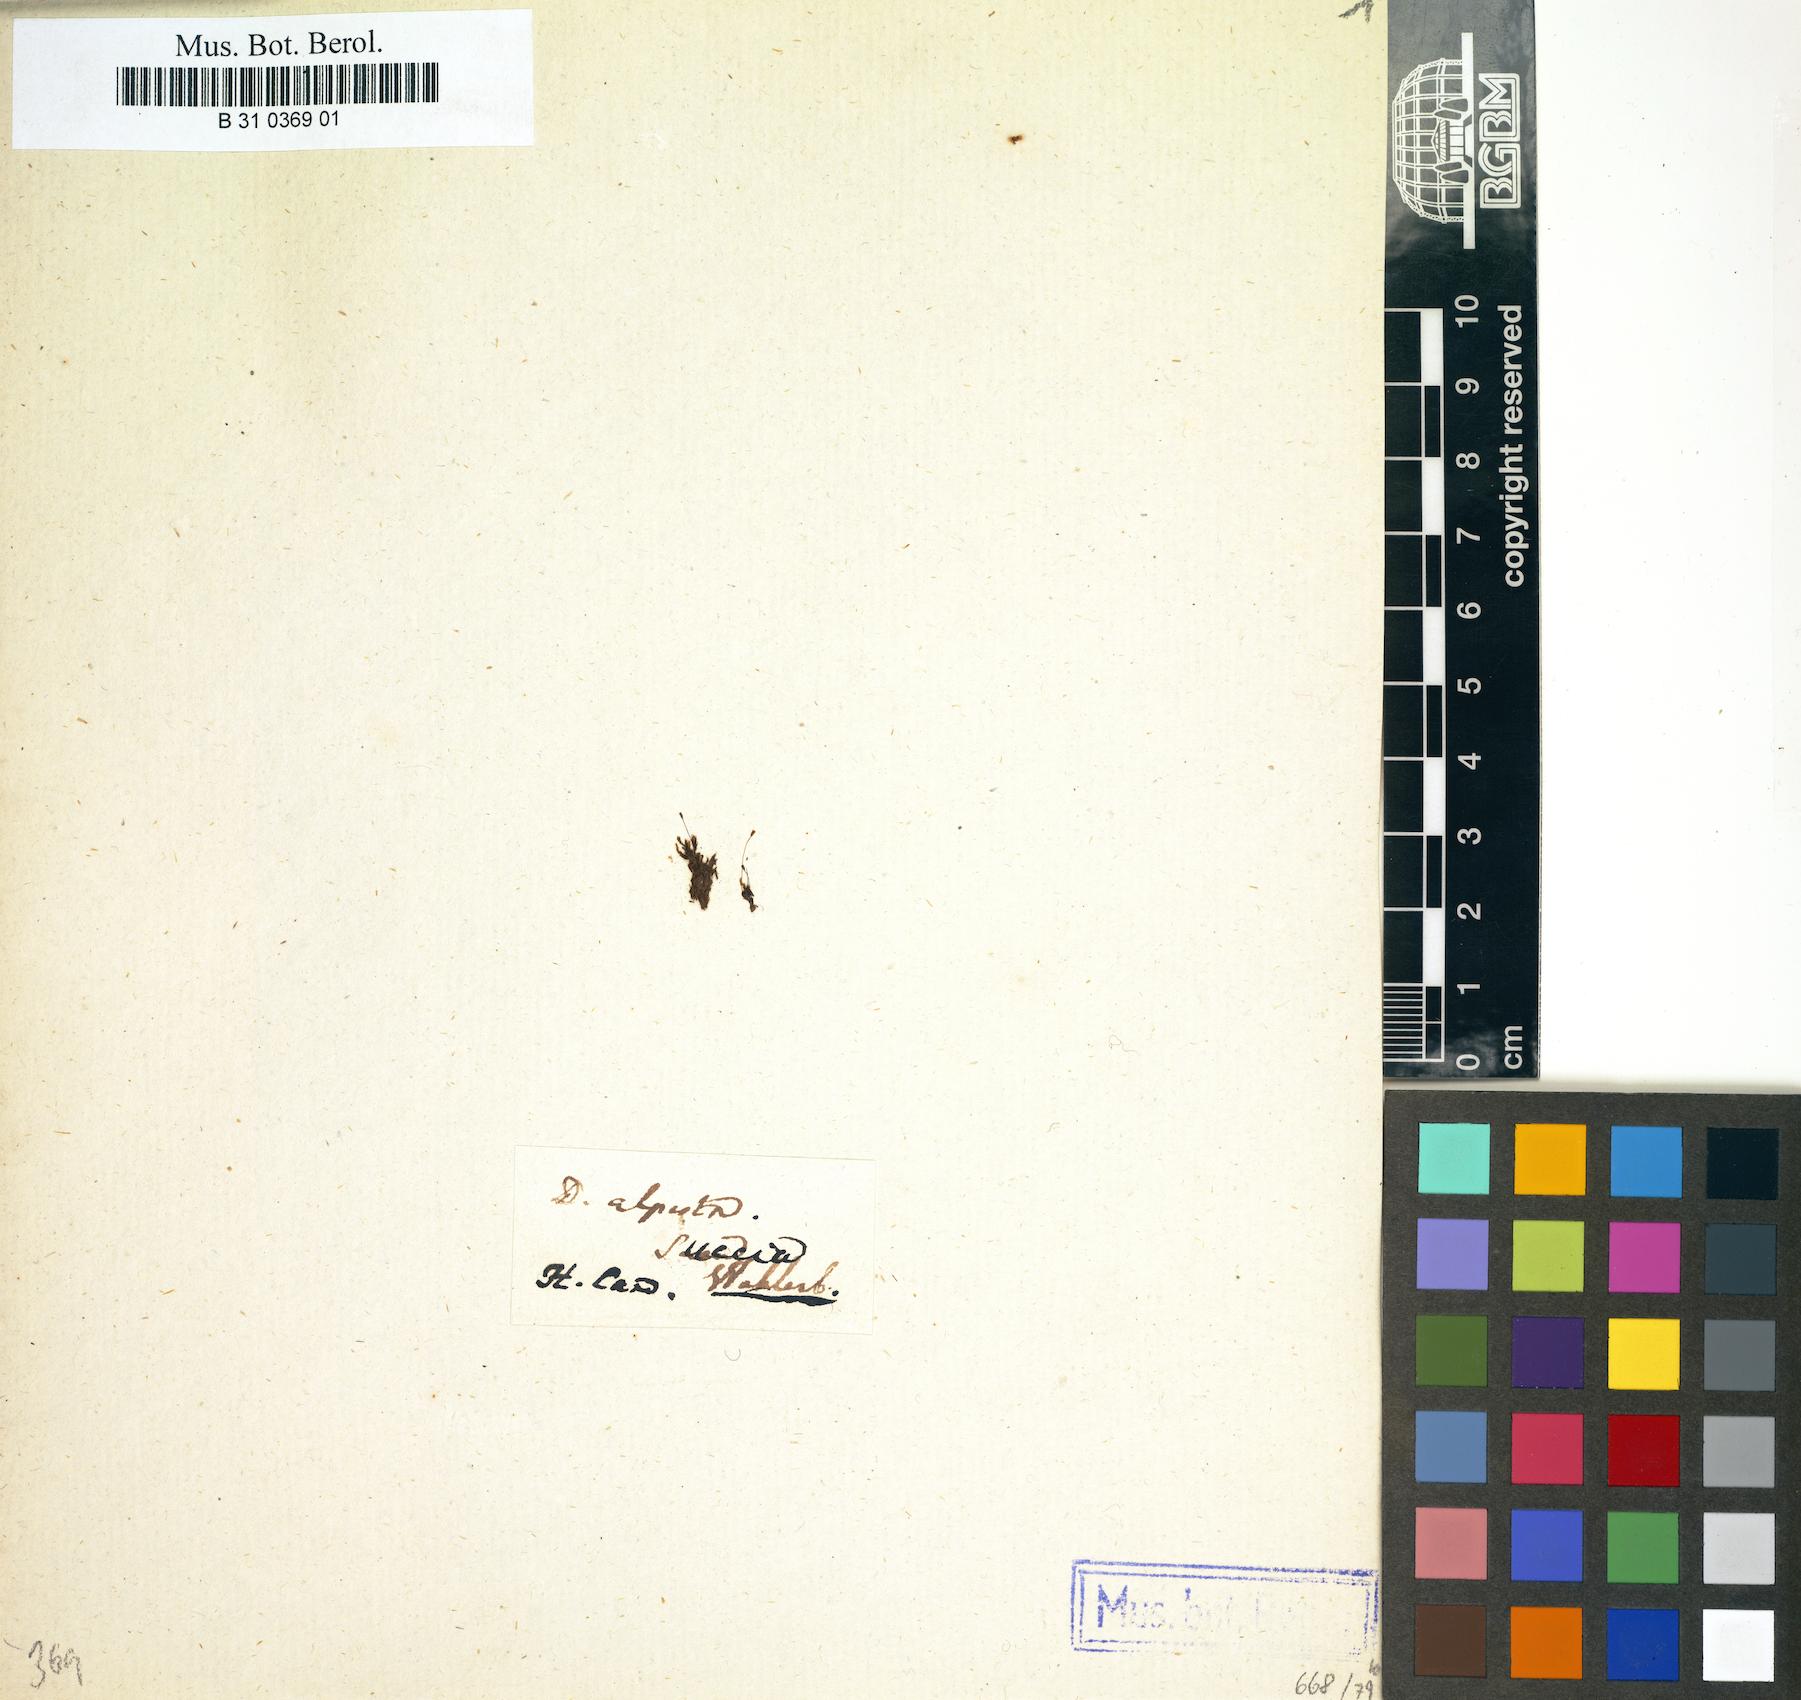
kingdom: Plantae
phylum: Bryophyta
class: Bryopsida
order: Dicranales
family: Rhabdoweisiaceae
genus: Cnestrum
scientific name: Cnestrum alpestre
